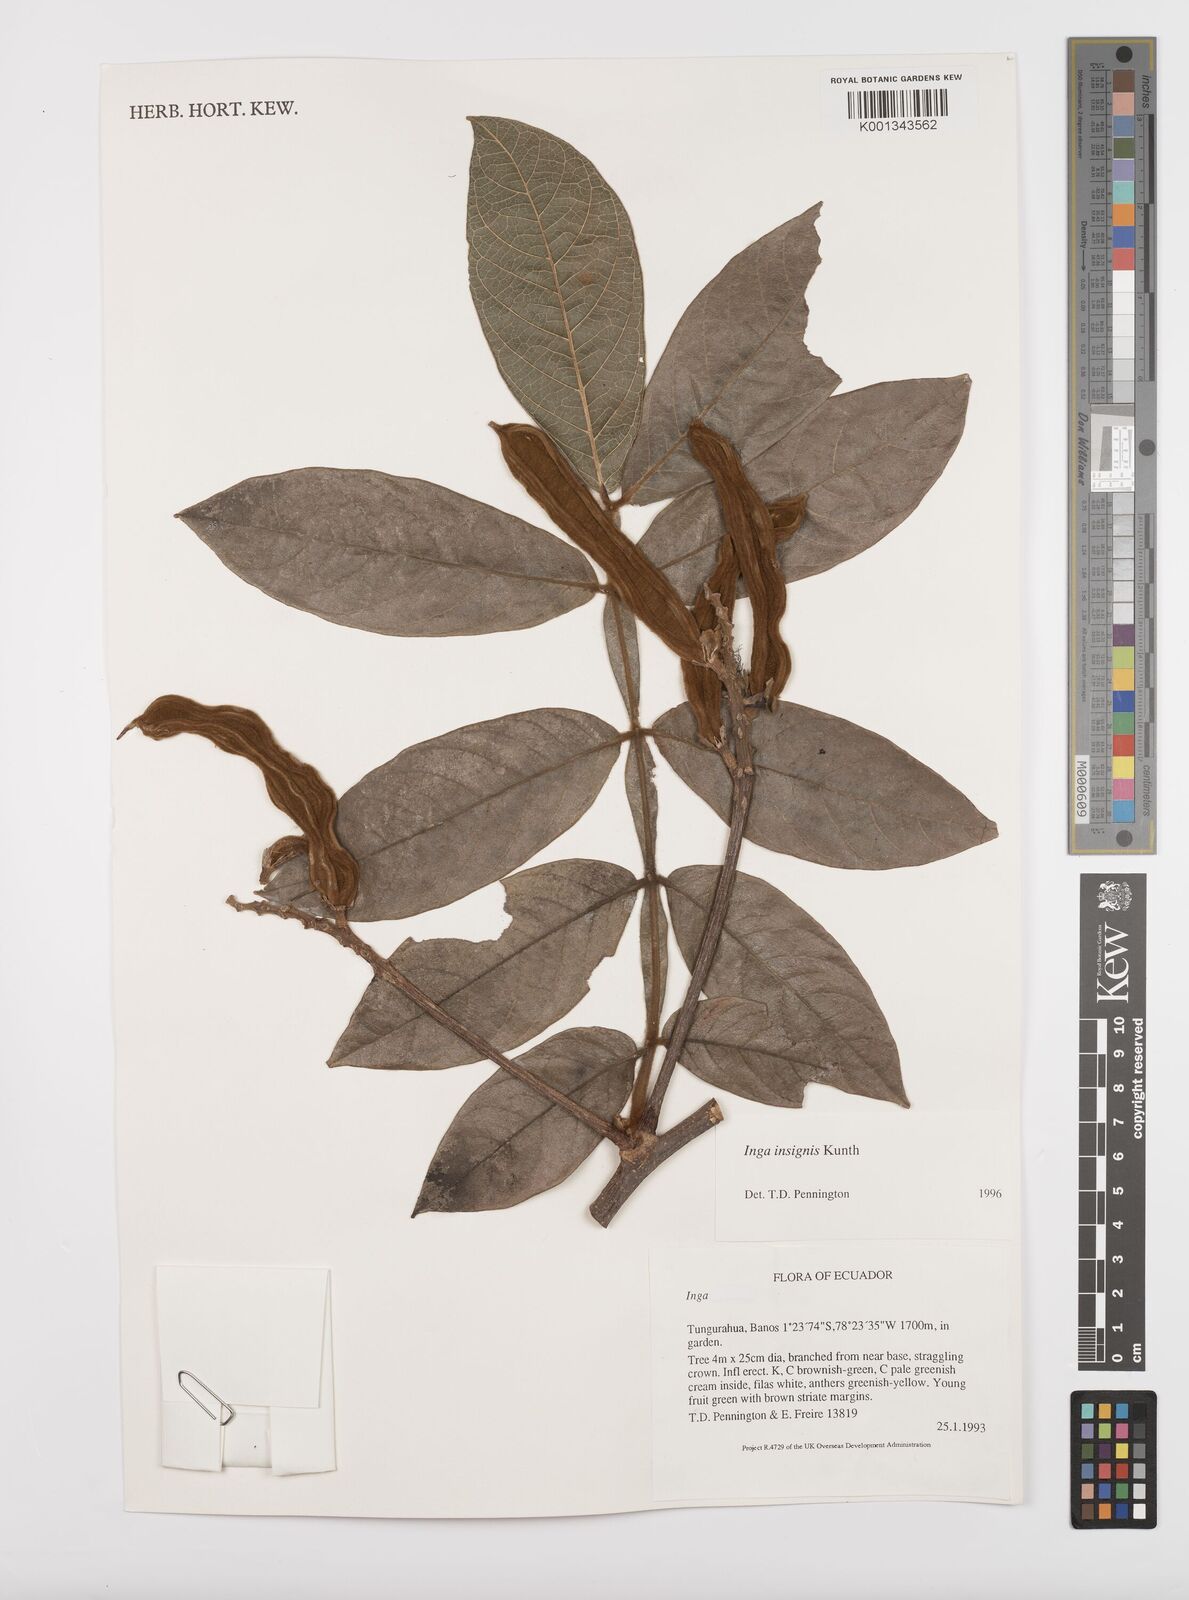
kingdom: Plantae
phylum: Tracheophyta
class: Magnoliopsida
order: Fabales
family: Fabaceae
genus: Inga
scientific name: Inga insignis
